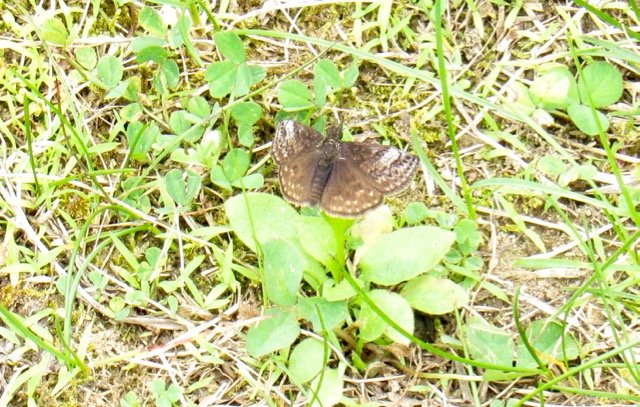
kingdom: Animalia
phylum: Arthropoda
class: Insecta
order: Lepidoptera
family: Hesperiidae
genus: Gesta
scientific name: Gesta
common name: Juvenal's Duskywing
